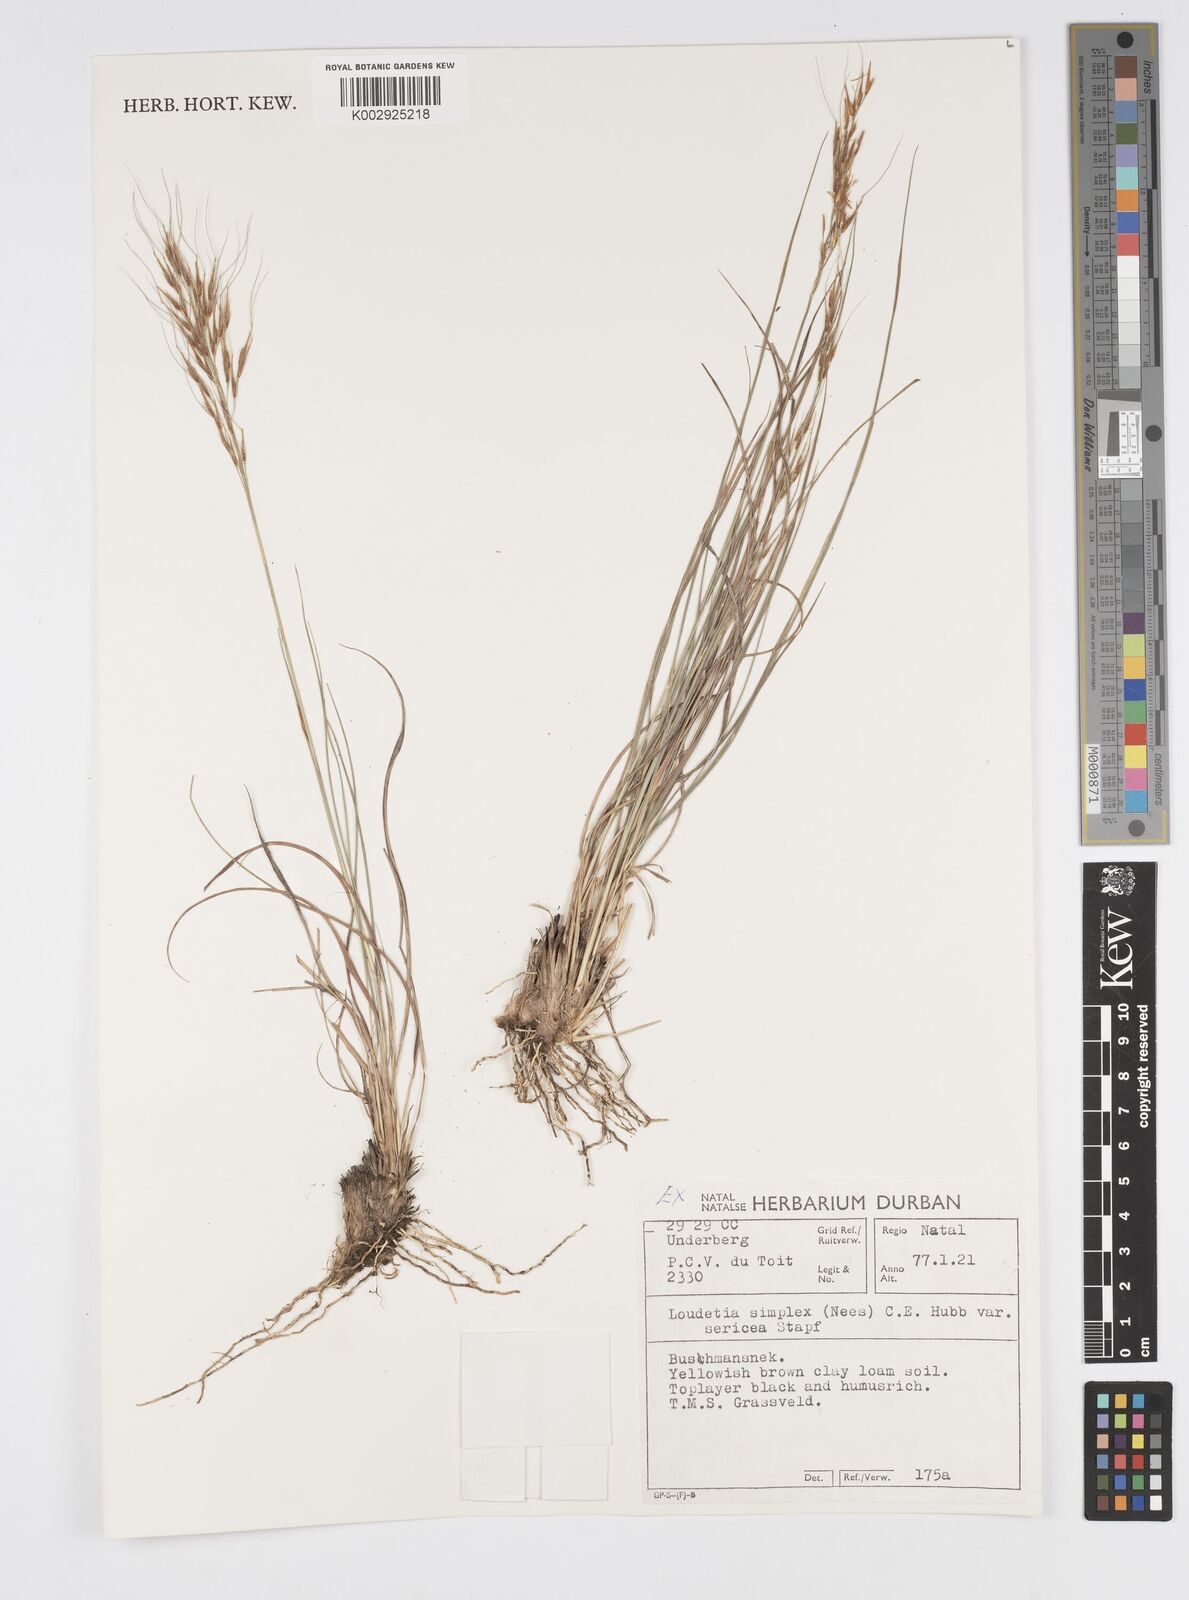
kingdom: Plantae
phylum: Tracheophyta
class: Liliopsida
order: Poales
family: Poaceae
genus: Loudetia
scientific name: Loudetia simplex
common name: Common russet grass
